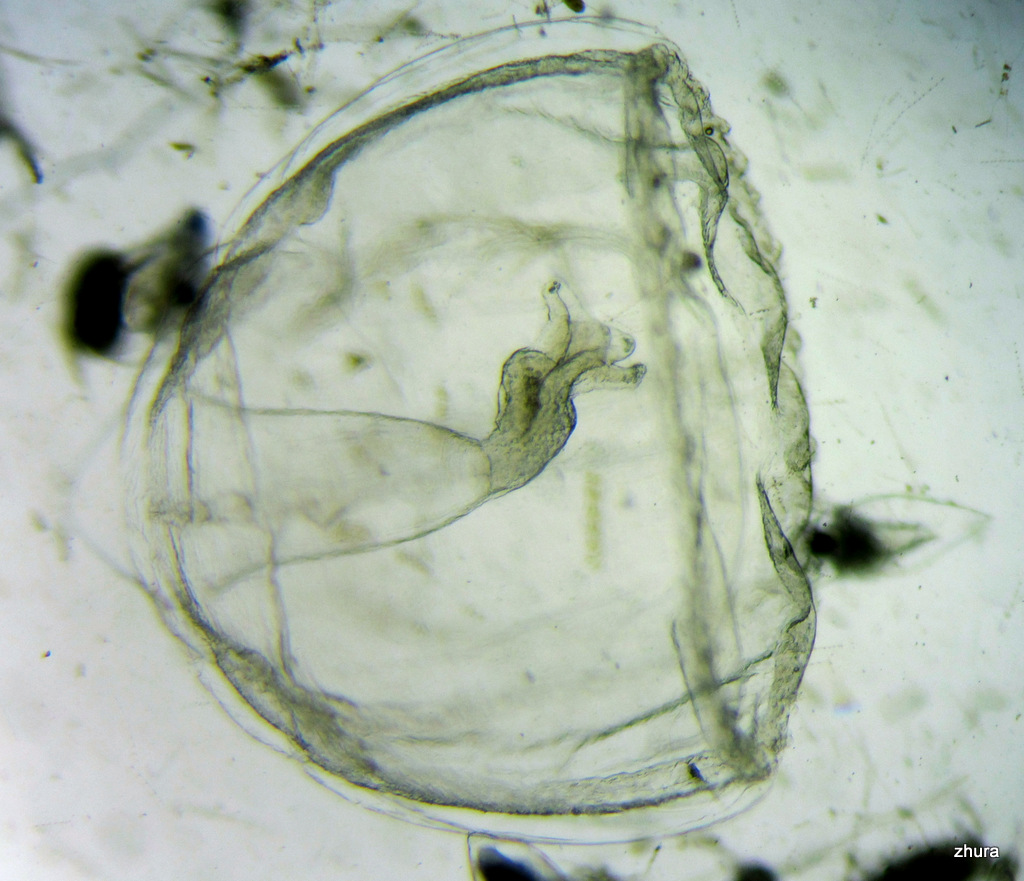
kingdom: Animalia
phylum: Cnidaria
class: Hydrozoa
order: Trachymedusae
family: Rhopalonematidae
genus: Aglantha
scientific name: Aglantha digitale
